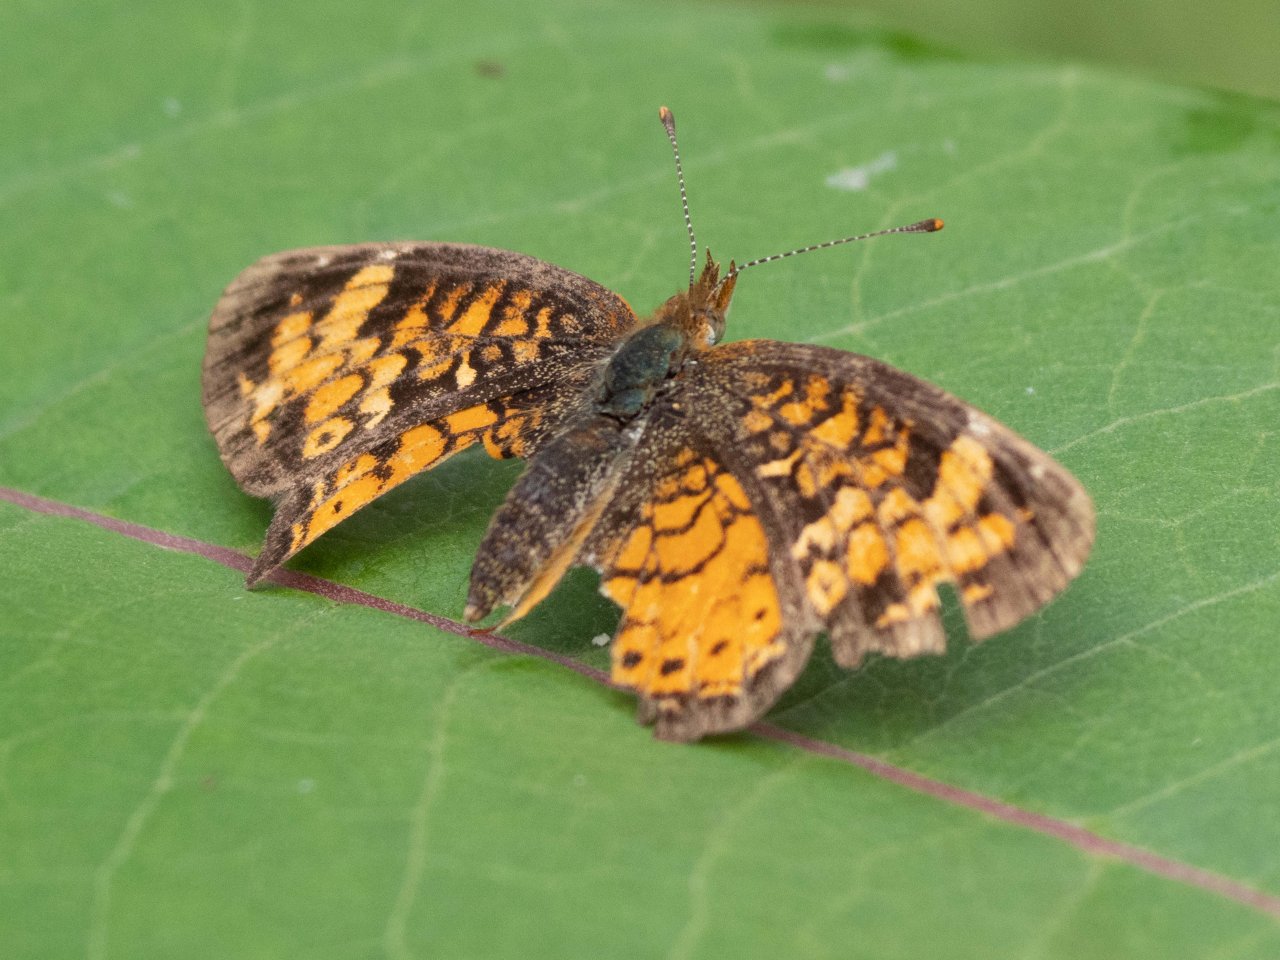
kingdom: Animalia
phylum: Arthropoda
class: Insecta
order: Lepidoptera
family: Nymphalidae
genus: Phyciodes
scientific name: Phyciodes
